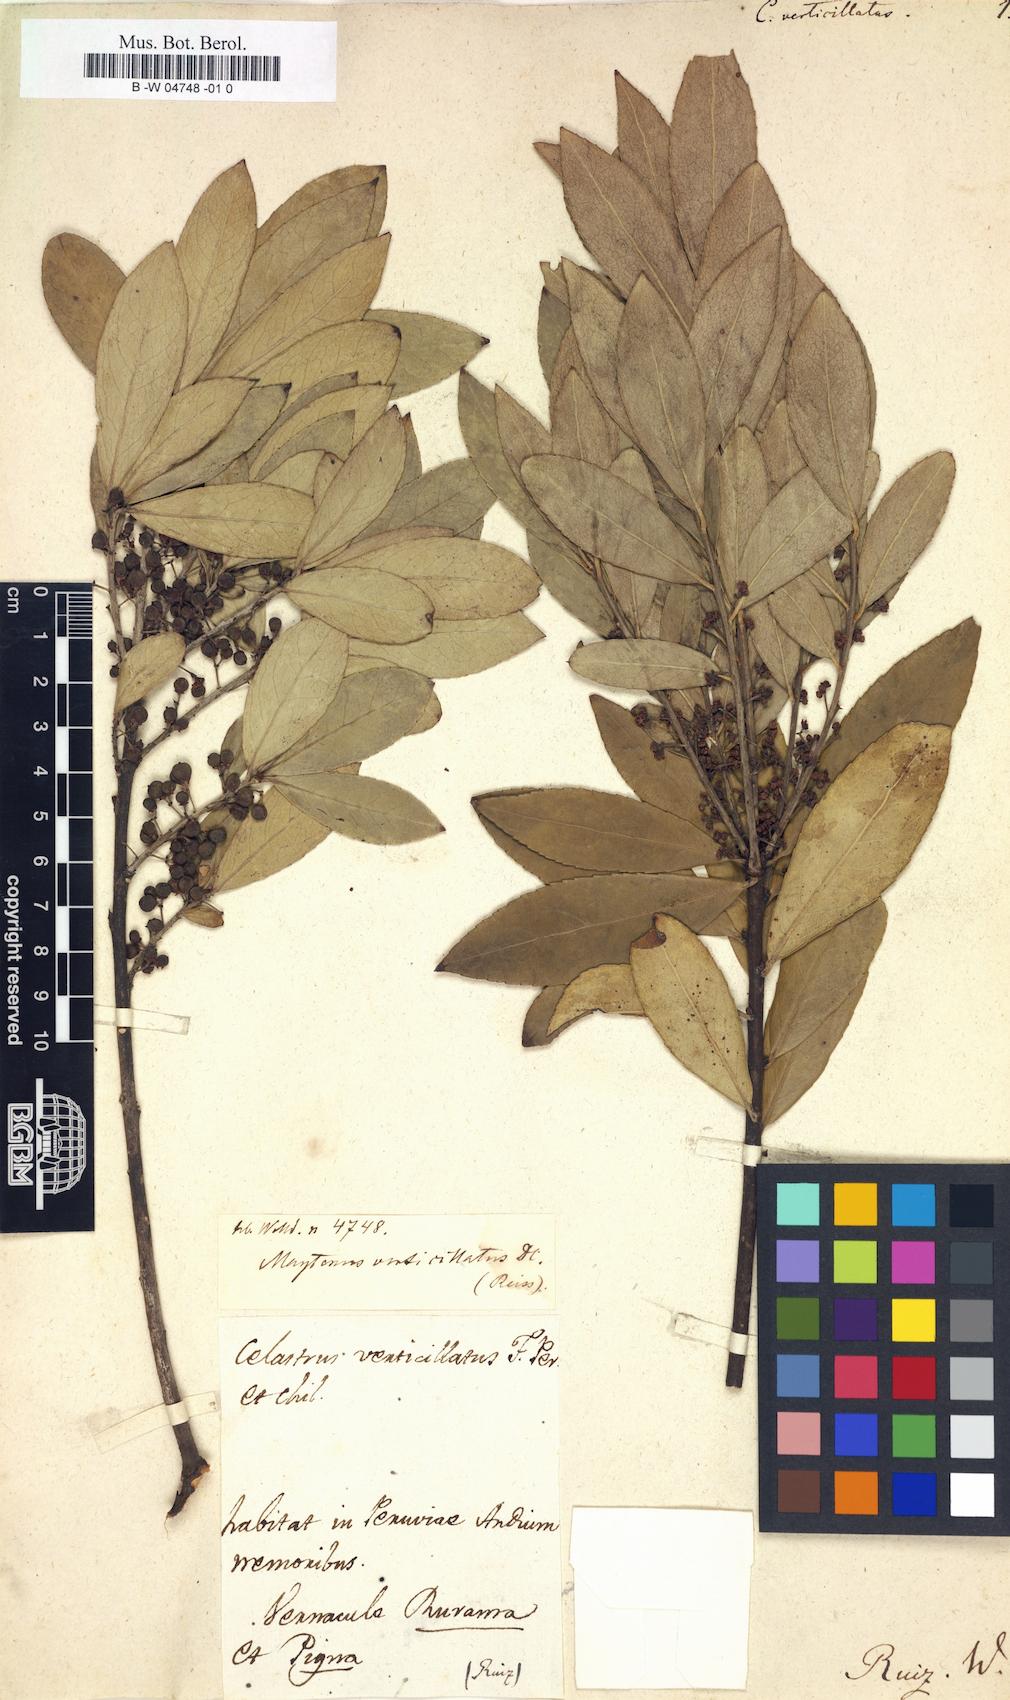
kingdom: Plantae
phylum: Tracheophyta
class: Magnoliopsida
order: Celastrales
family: Celastraceae
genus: Maytenus
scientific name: Maytenus verticillata
